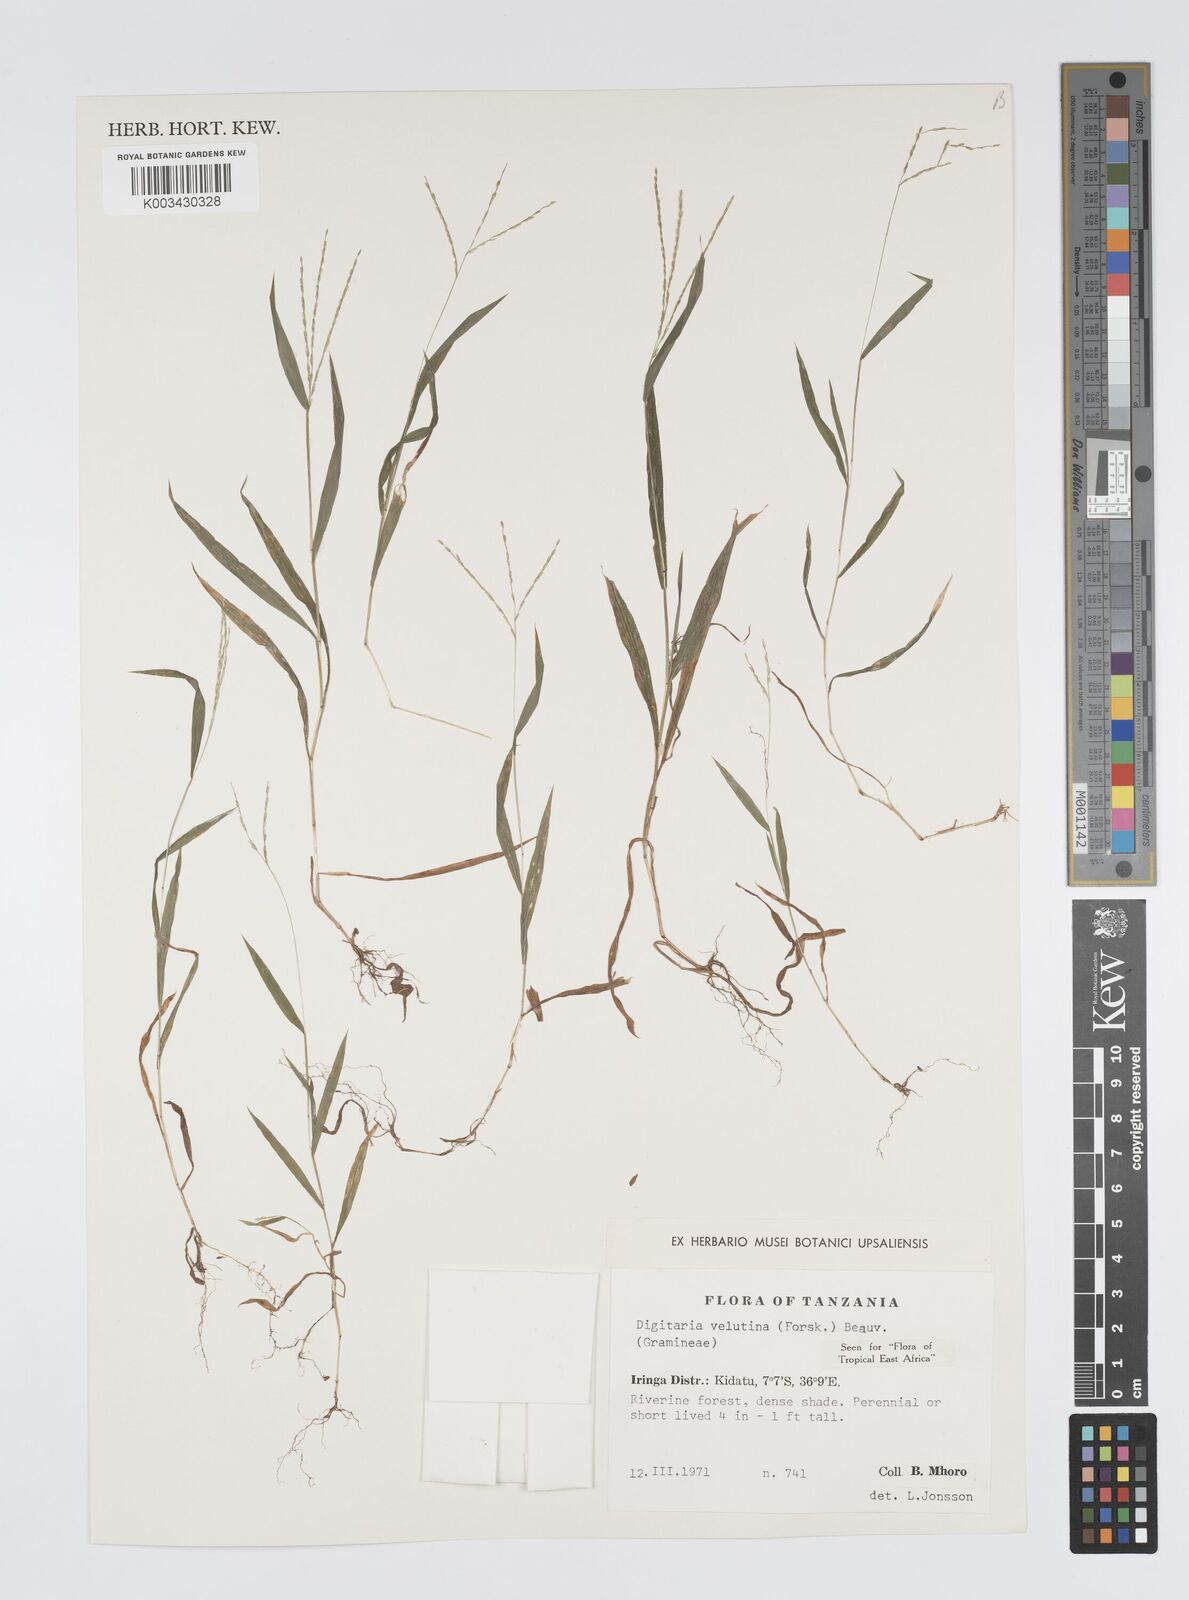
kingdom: Plantae
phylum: Tracheophyta
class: Liliopsida
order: Poales
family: Poaceae
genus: Digitaria
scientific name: Digitaria velutina
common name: Long-plume finger grass
